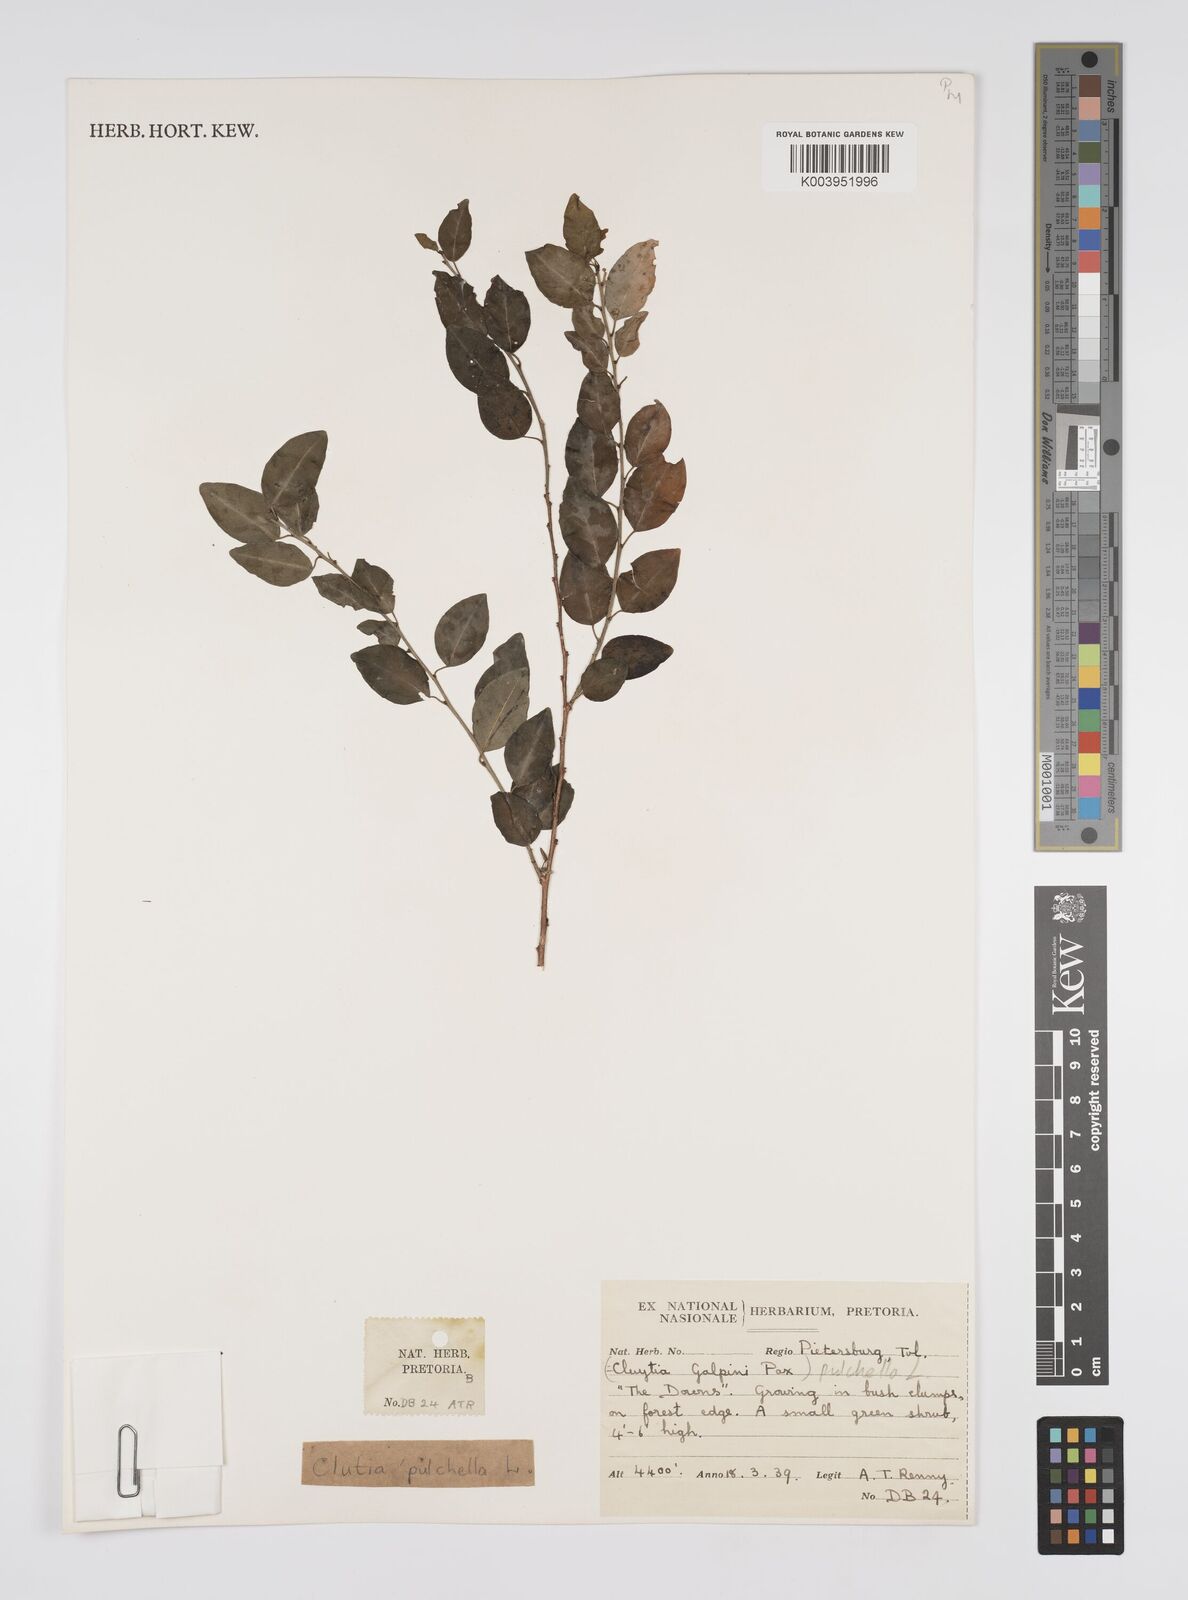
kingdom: Plantae
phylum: Tracheophyta
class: Magnoliopsida
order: Malpighiales
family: Peraceae
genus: Clutia
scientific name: Clutia pulchella
